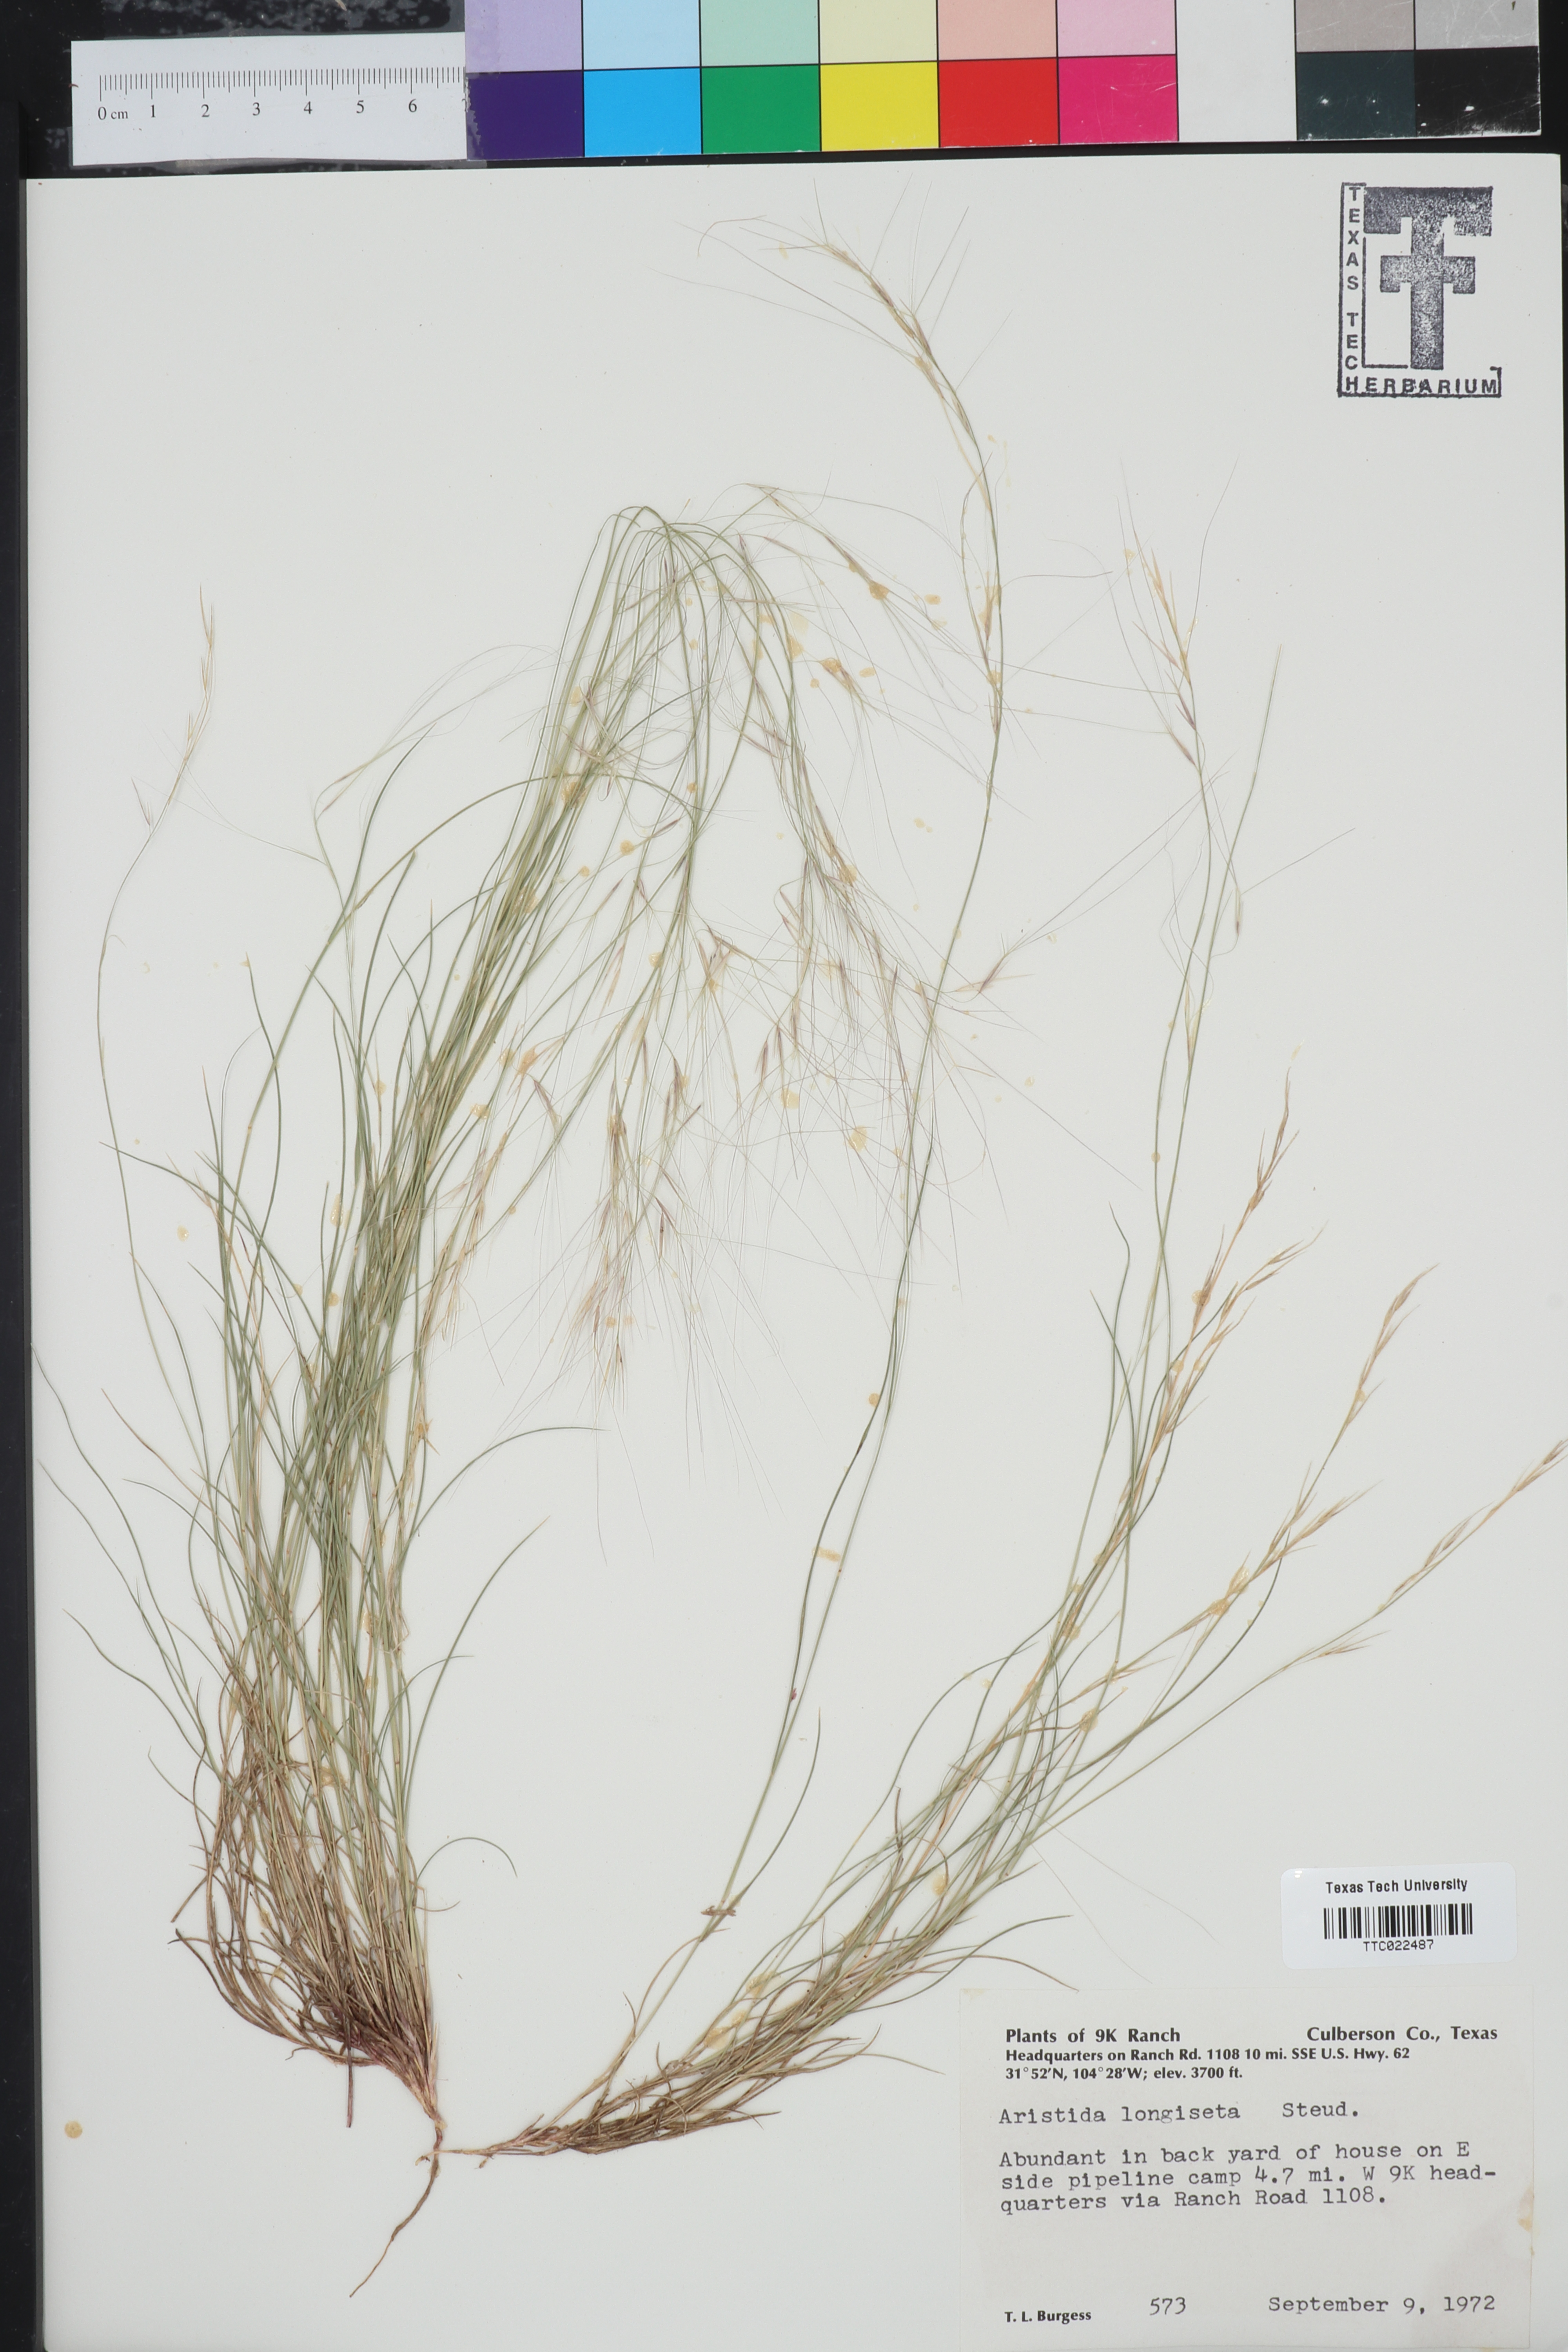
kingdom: Plantae
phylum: Tracheophyta
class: Liliopsida
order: Poales
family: Poaceae
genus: Aristida
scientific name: Aristida longiseta
